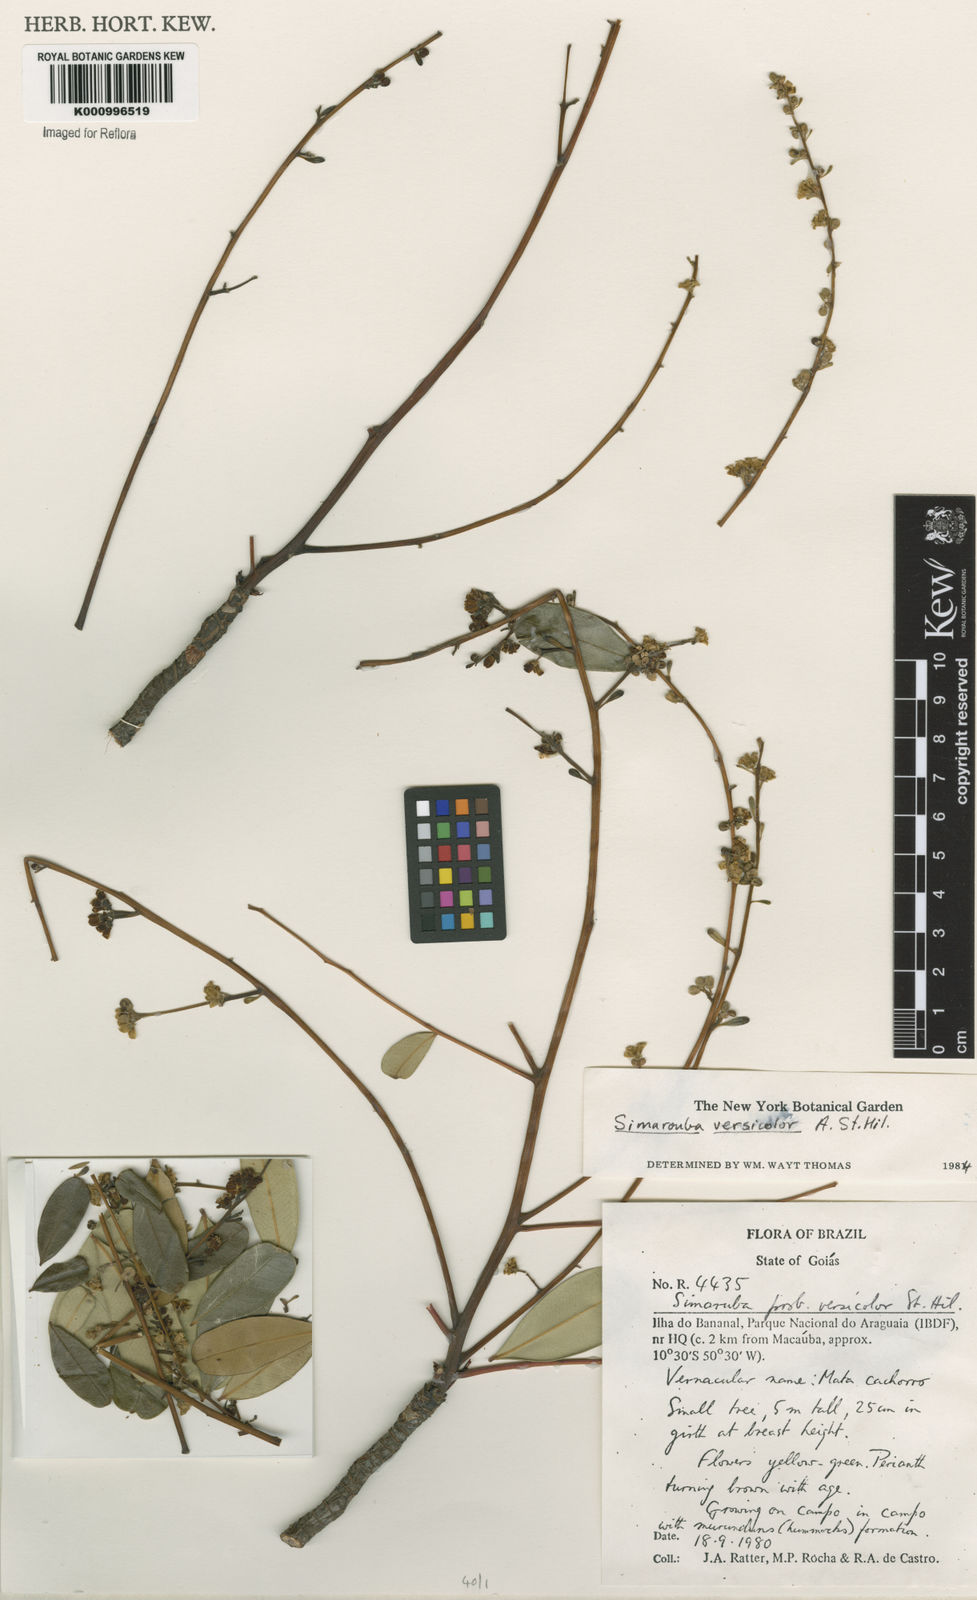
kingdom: Plantae
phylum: Tracheophyta
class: Magnoliopsida
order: Sapindales
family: Simaroubaceae
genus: Simarouba
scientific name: Simarouba versicolor
